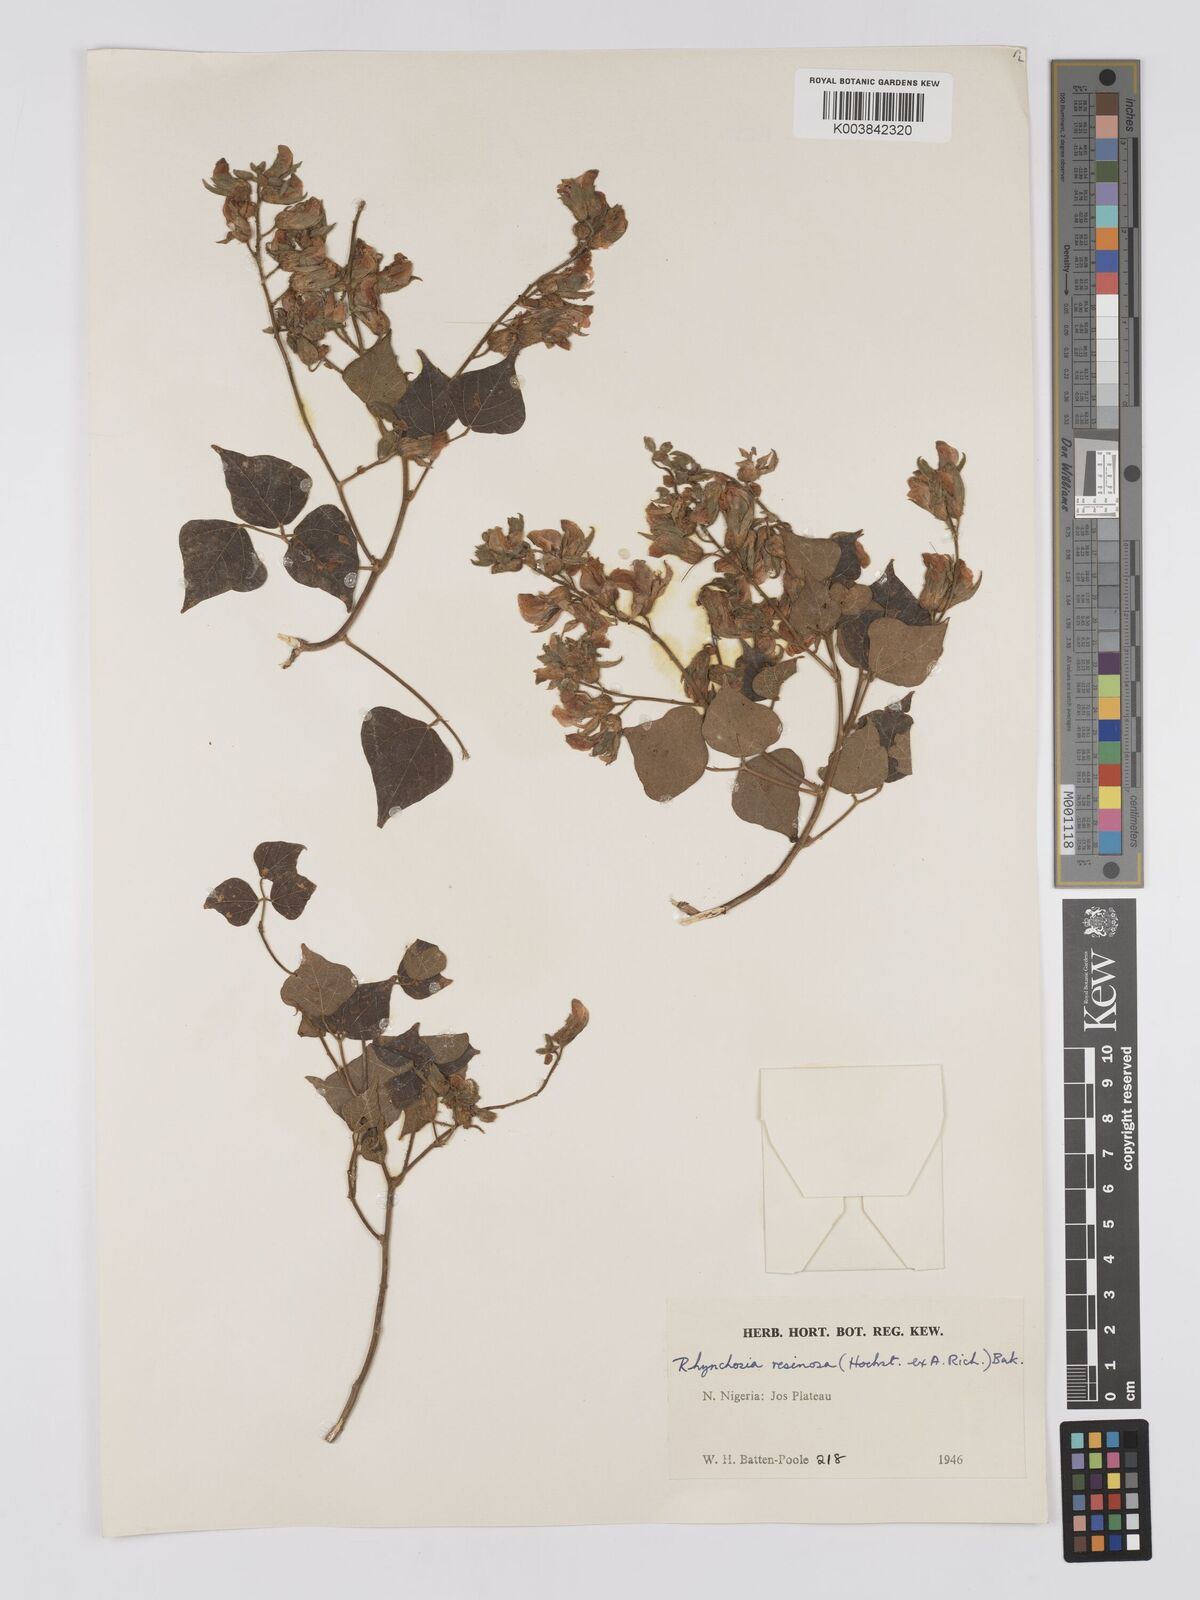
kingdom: Plantae
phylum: Tracheophyta
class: Magnoliopsida
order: Fabales
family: Fabaceae
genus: Rhynchosia
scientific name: Rhynchosia resinosa
